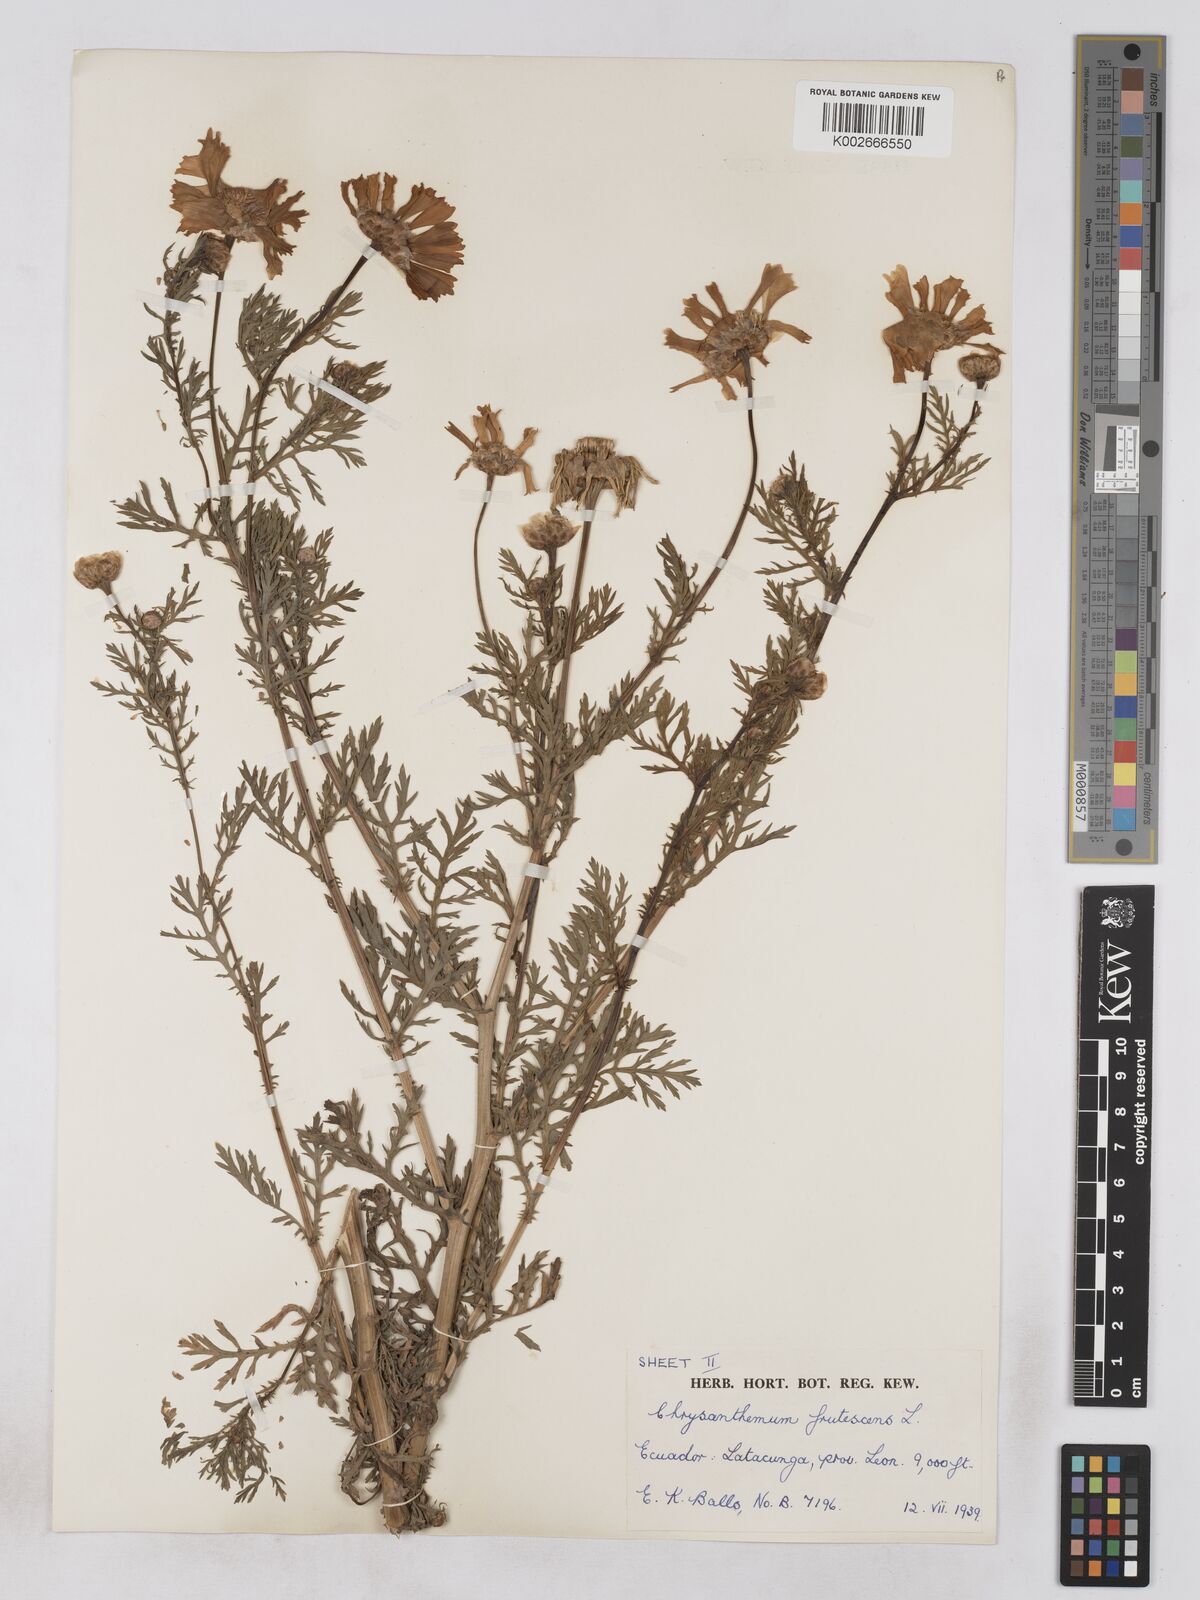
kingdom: Plantae
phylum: Tracheophyta
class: Magnoliopsida
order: Asterales
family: Asteraceae
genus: Argyranthemum
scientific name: Argyranthemum frutescens
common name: Paris daisy
